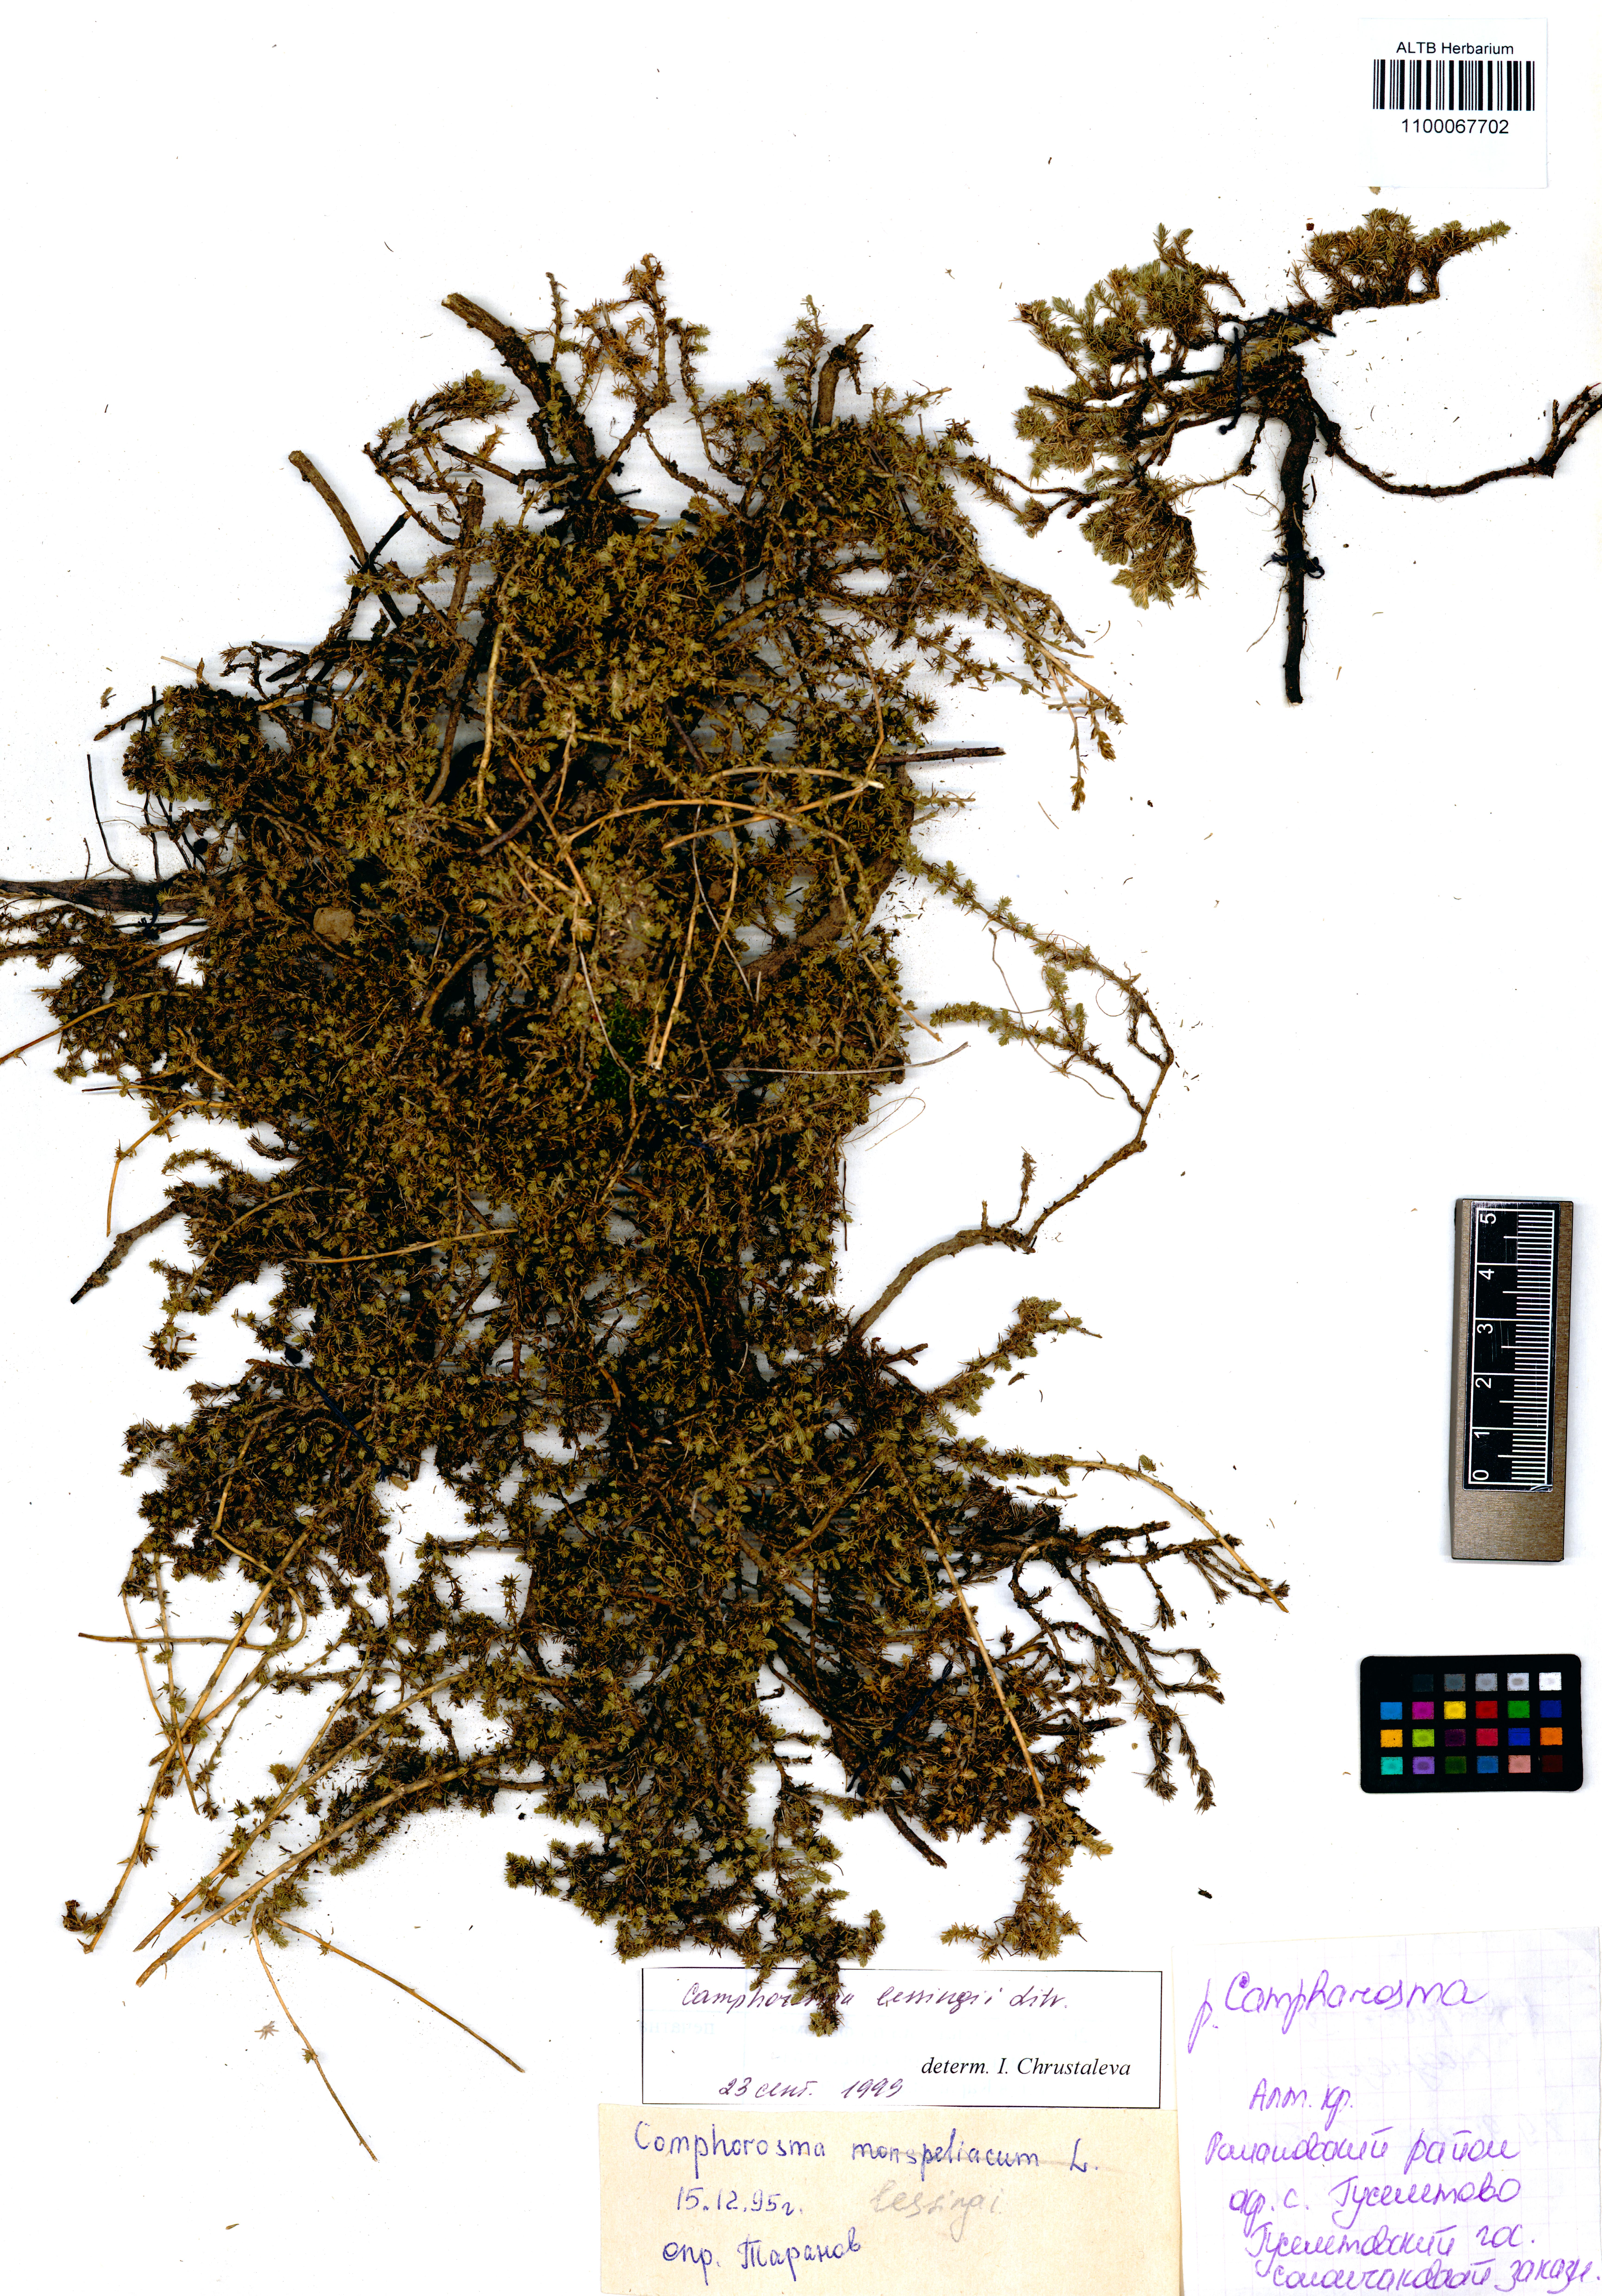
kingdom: Plantae
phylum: Tracheophyta
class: Magnoliopsida
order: Caryophyllales
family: Amaranthaceae
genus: Camphorosma
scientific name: Camphorosma monspeliaca
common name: Camphorfume
